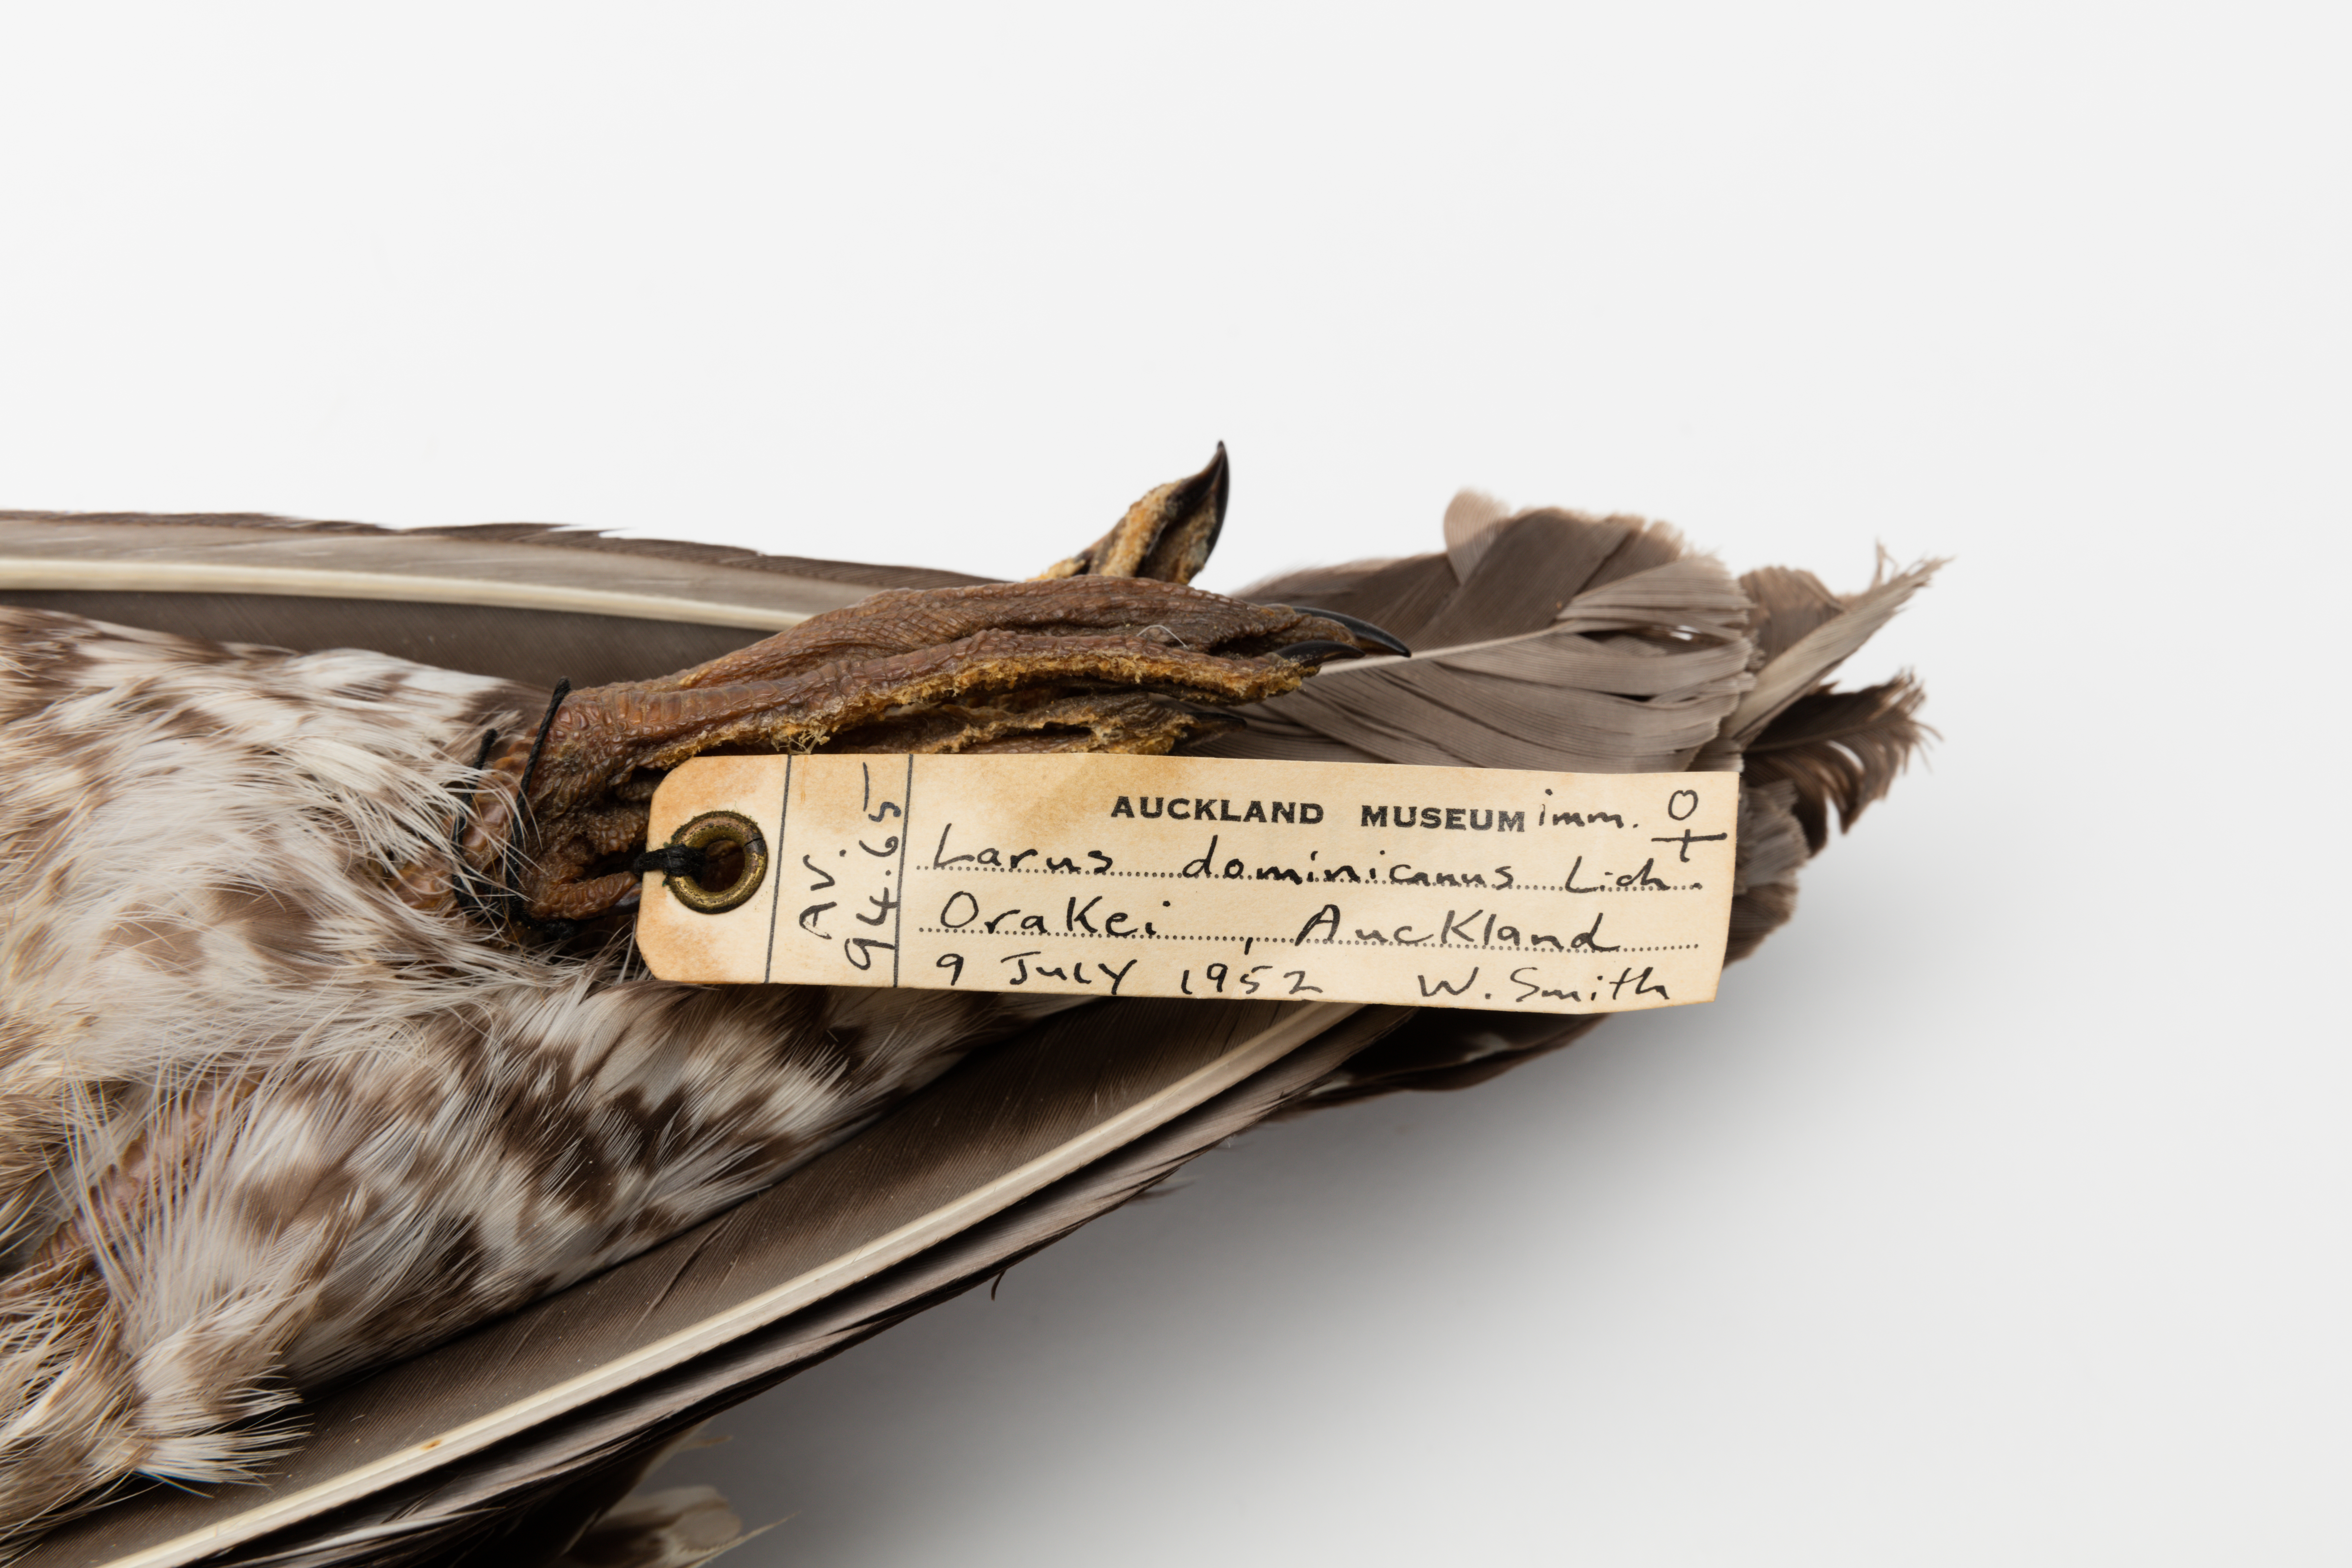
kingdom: Animalia
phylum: Chordata
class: Aves
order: Charadriiformes
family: Laridae
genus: Larus
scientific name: Larus dominicanus
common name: Kelp gull
